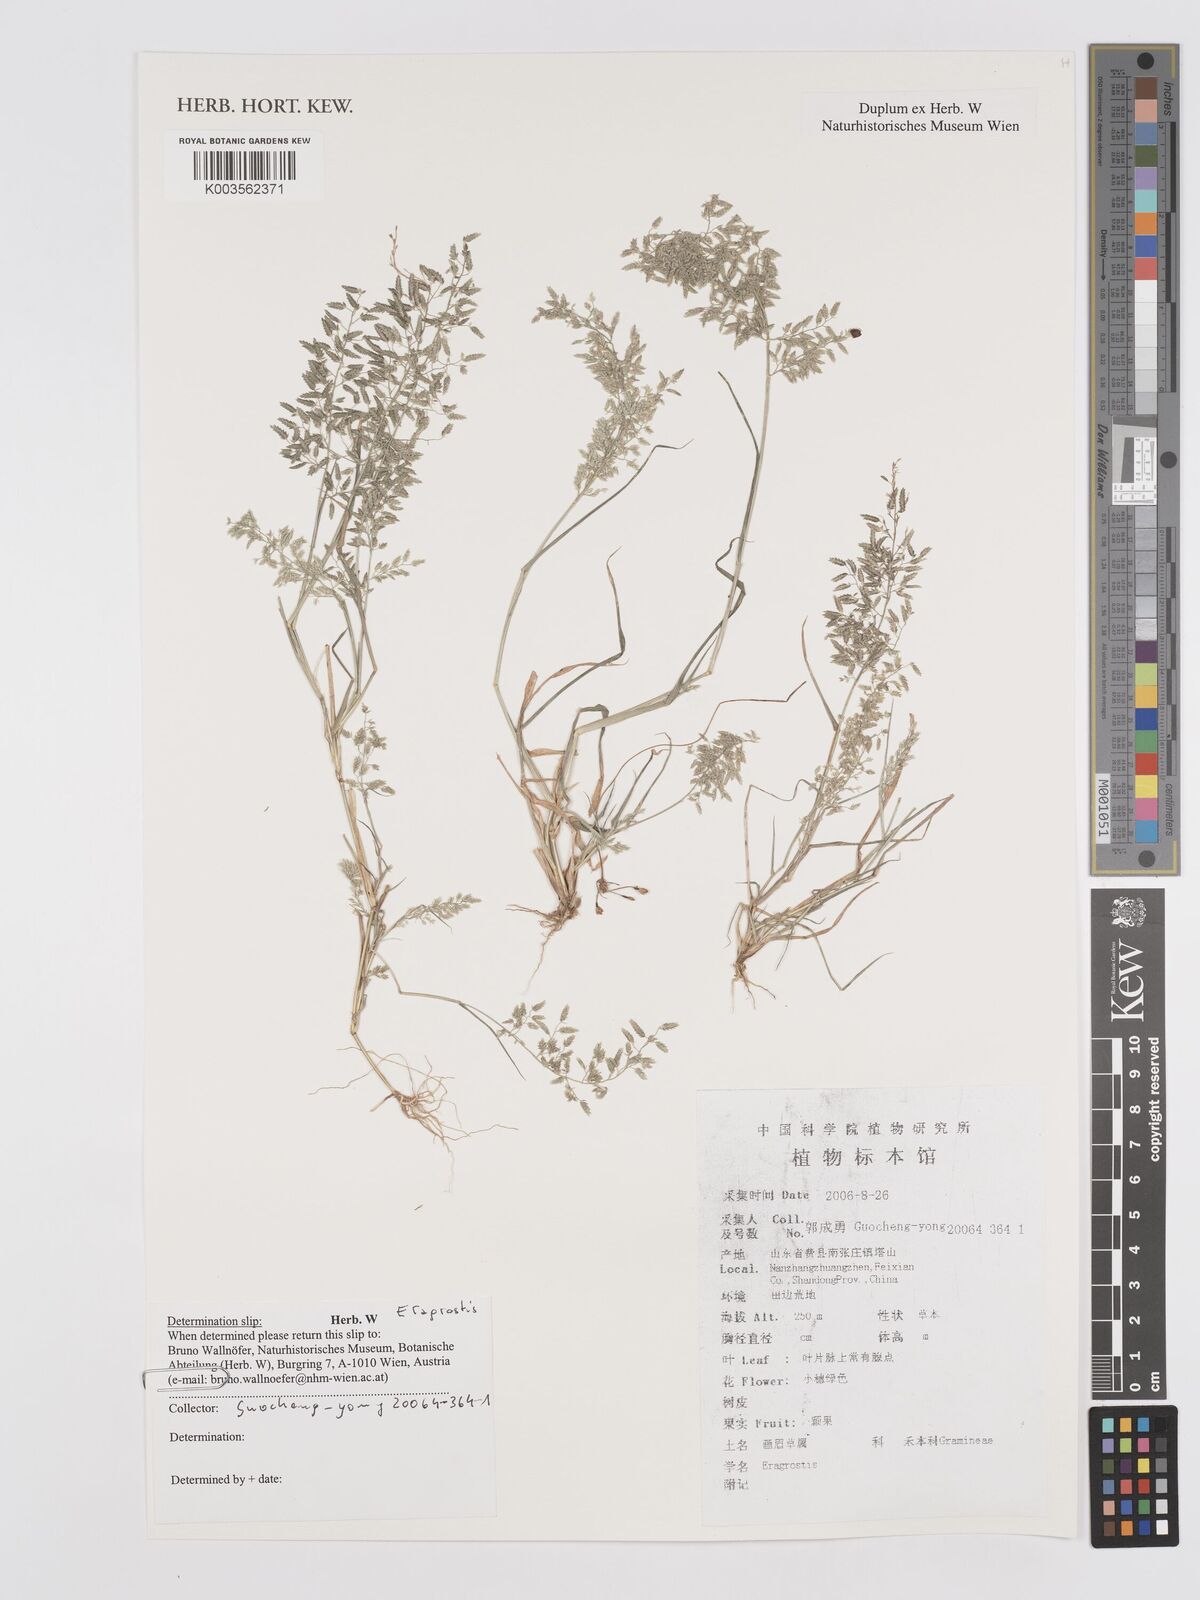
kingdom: Plantae
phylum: Tracheophyta
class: Liliopsida
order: Poales
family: Poaceae
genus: Eragrostis
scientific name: Eragrostis
